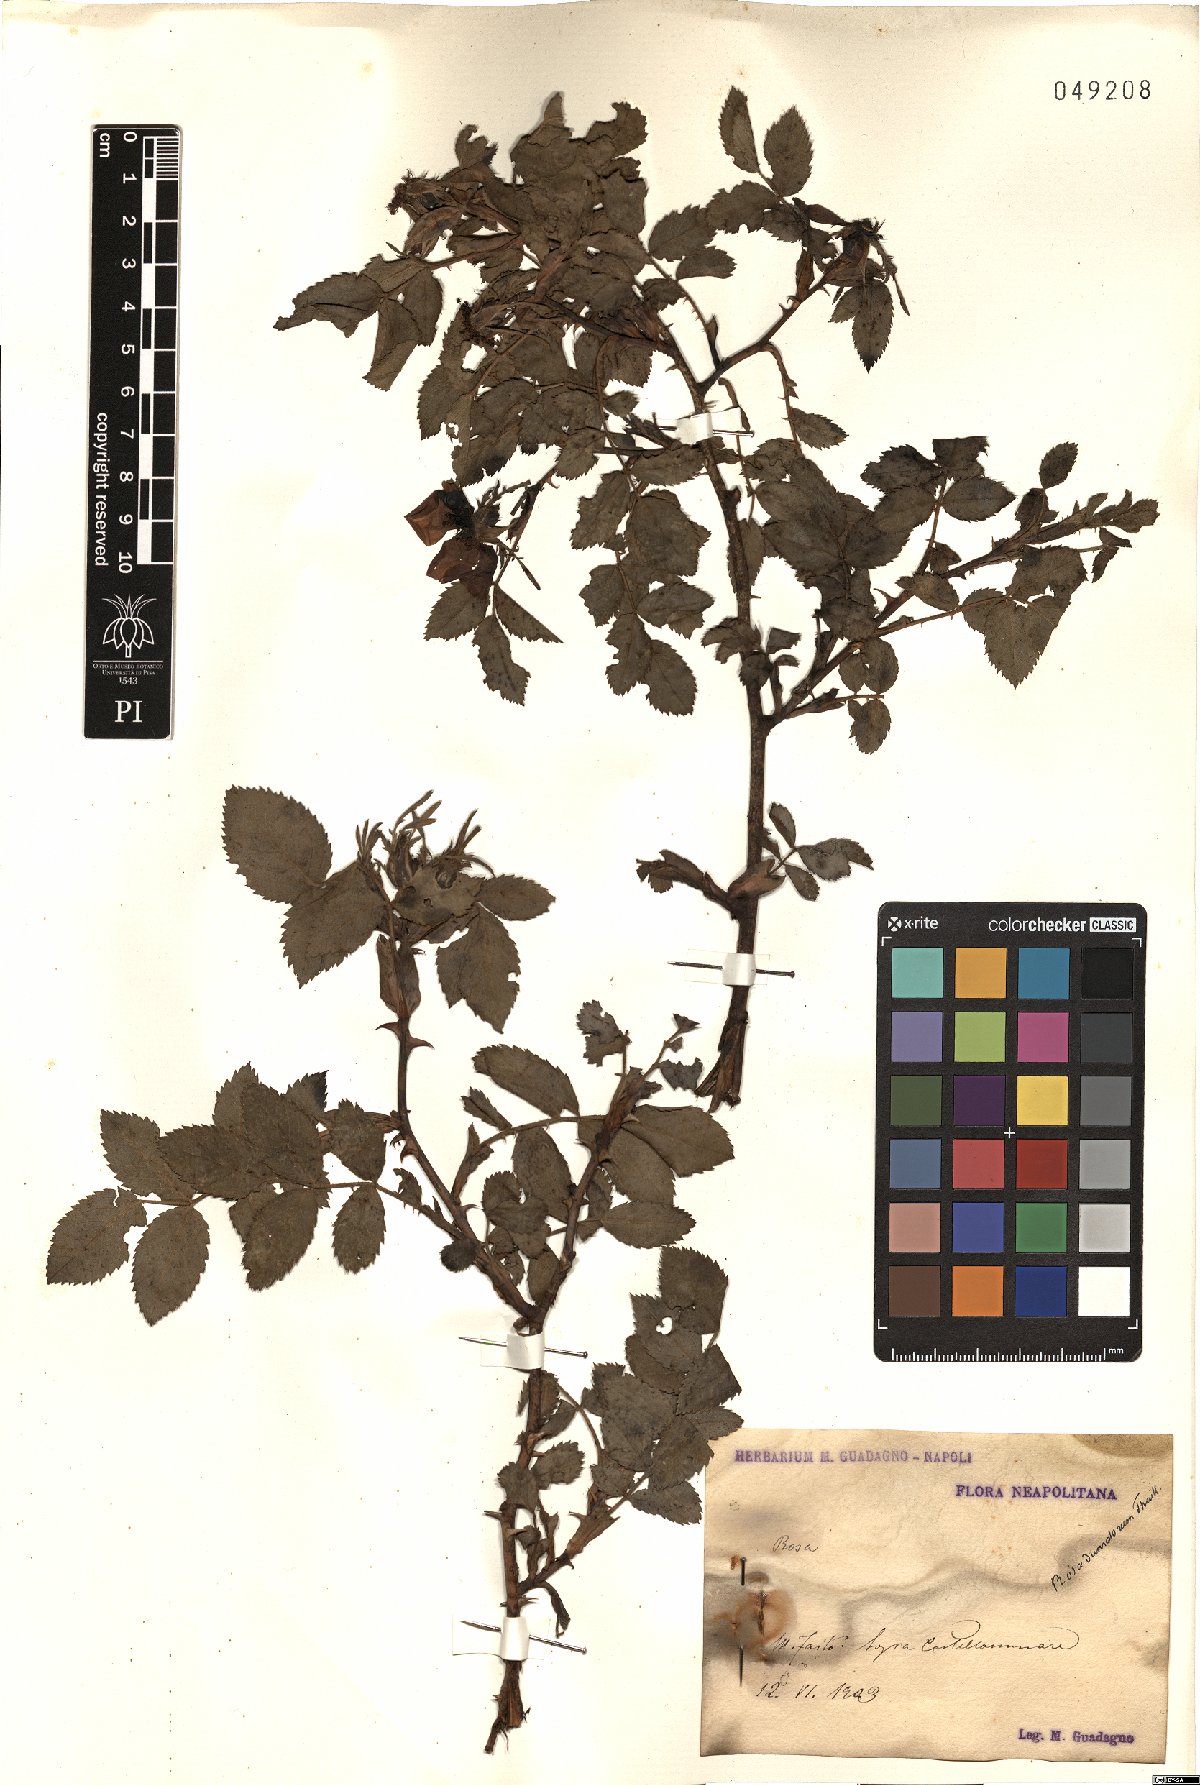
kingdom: Plantae
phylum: Tracheophyta
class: Magnoliopsida
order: Rosales
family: Rosaceae
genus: Rosa
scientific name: Rosa corymbifera
